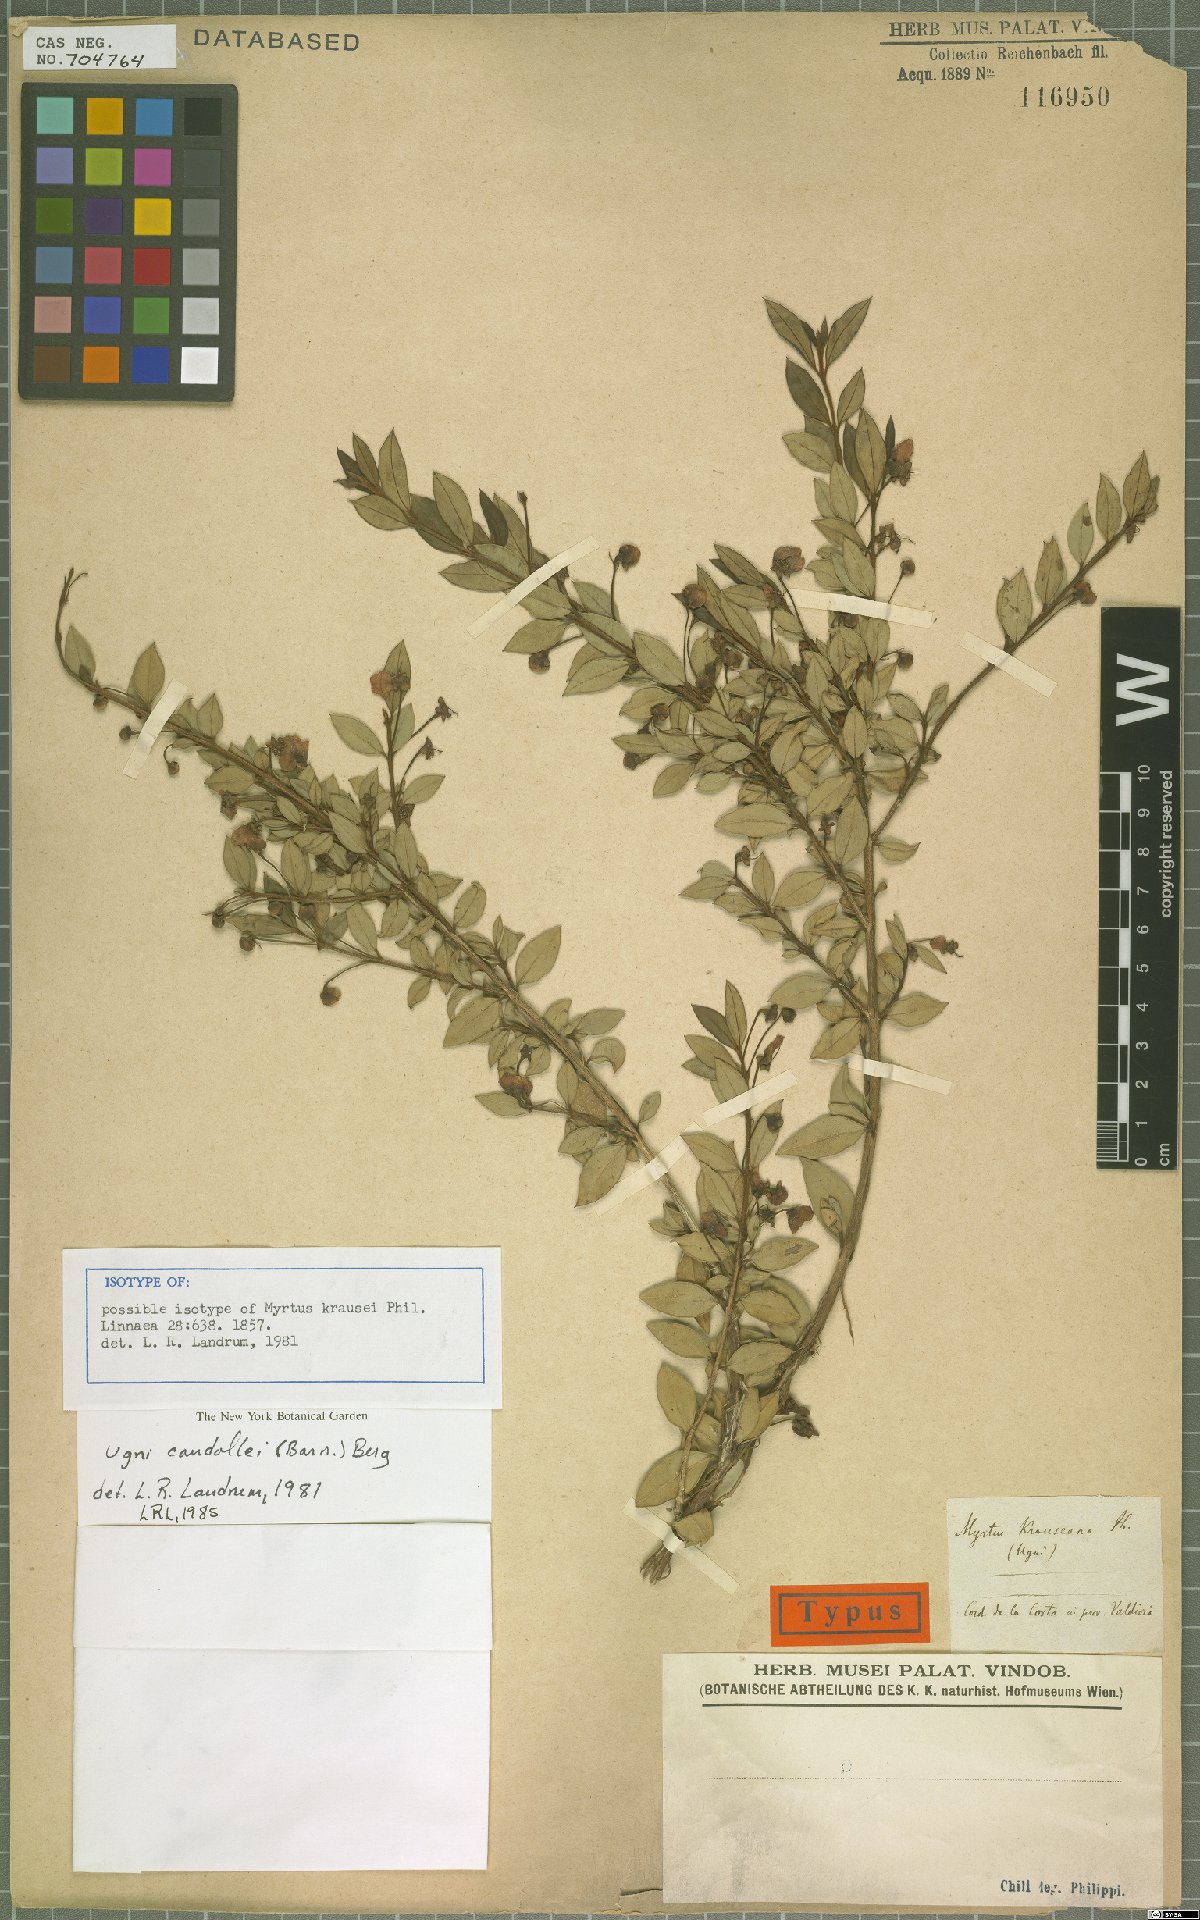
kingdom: Plantae
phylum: Tracheophyta
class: Magnoliopsida
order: Myrtales
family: Myrtaceae
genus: Ugni
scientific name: Ugni candollei
